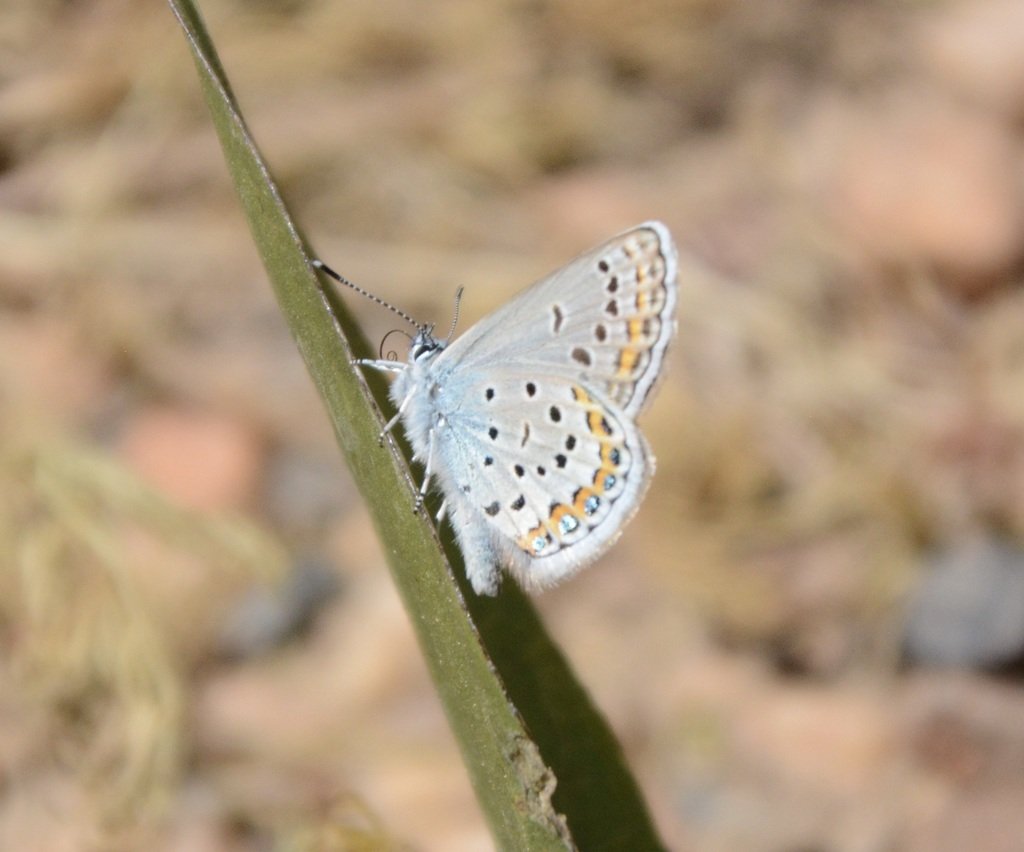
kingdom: Animalia
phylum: Arthropoda
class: Insecta
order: Lepidoptera
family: Lycaenidae
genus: Lycaeides
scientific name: Lycaeides melissa
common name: Melissa Blue
